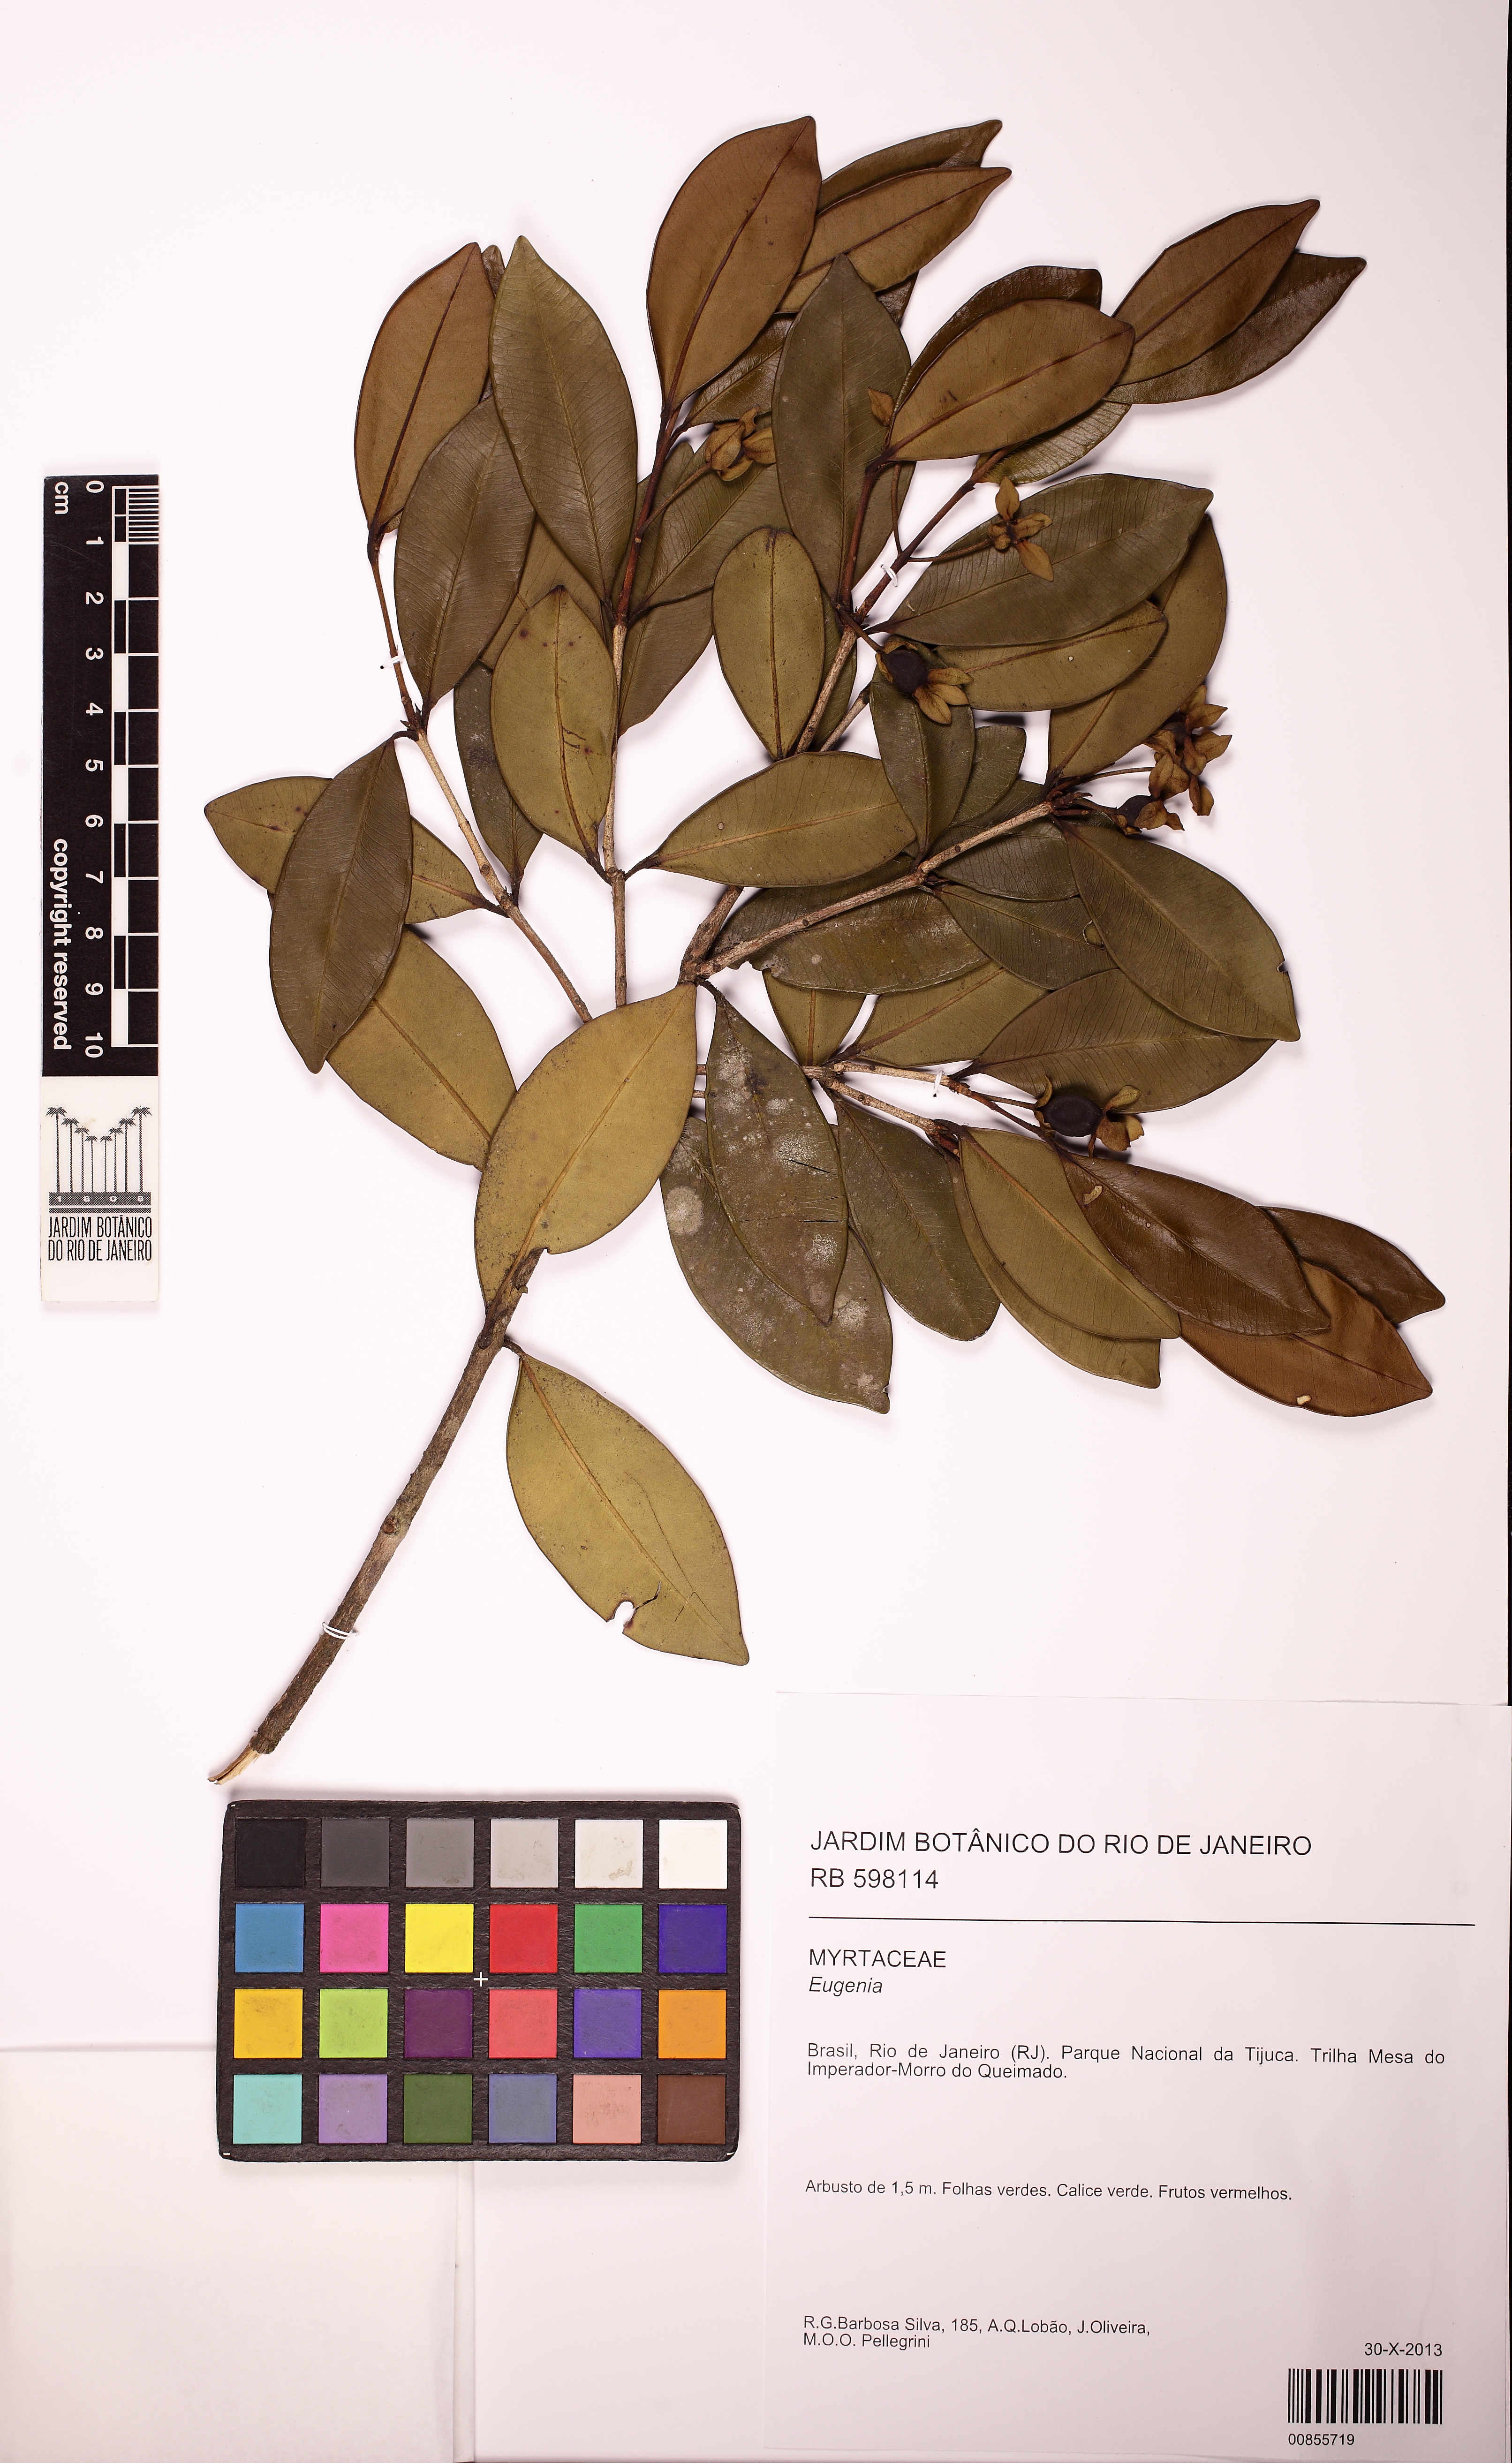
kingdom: Plantae
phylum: Tracheophyta
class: Magnoliopsida
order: Myrtales
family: Myrtaceae
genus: Eugenia
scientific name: Eugenia involucrata
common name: Cherry-of-the-rio grande
